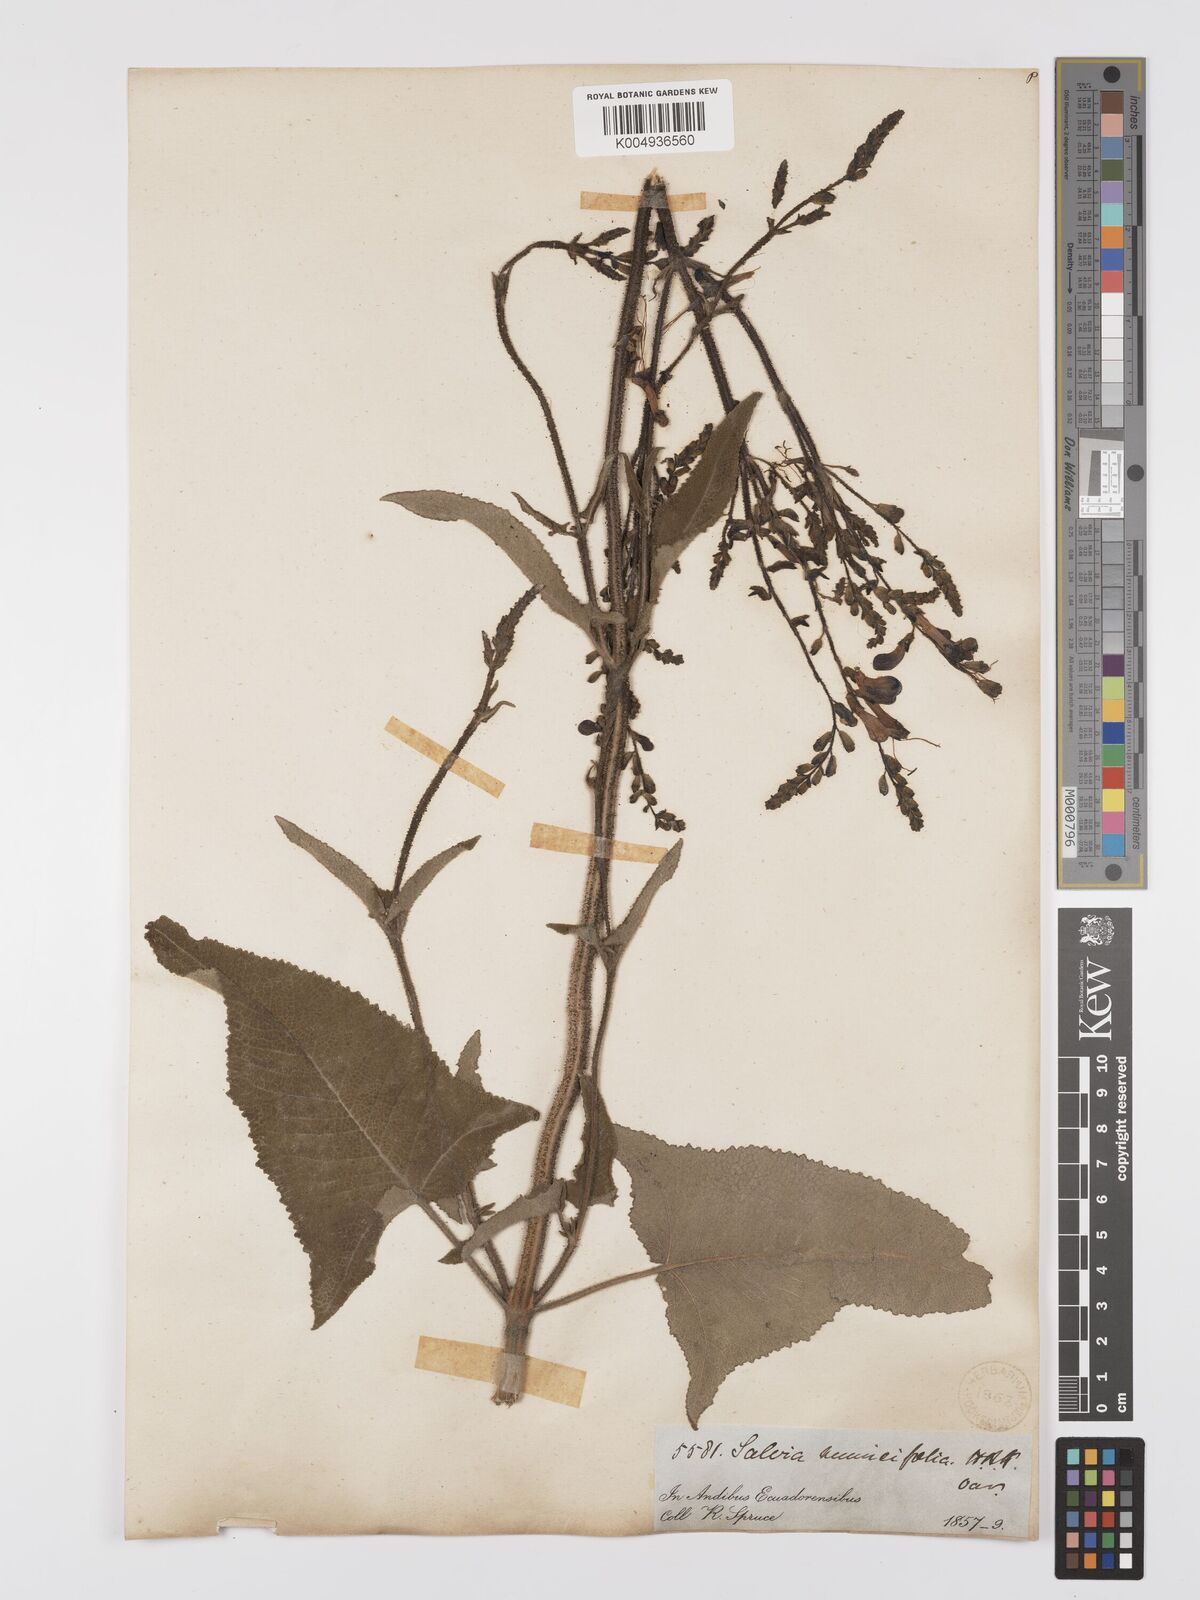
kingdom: Plantae
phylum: Tracheophyta
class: Magnoliopsida
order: Lamiales
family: Lamiaceae
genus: Salvia
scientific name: Salvia sagittata
